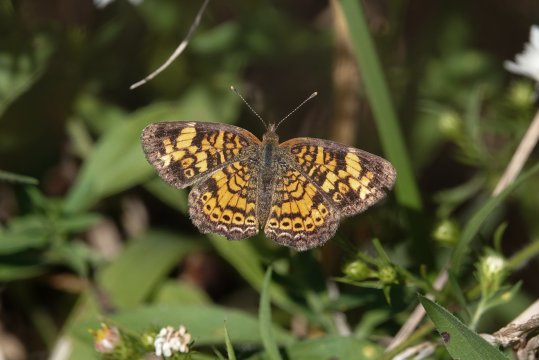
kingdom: Animalia
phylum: Arthropoda
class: Insecta
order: Lepidoptera
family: Nymphalidae
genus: Phyciodes
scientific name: Phyciodes tharos
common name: Pearl Crescent
